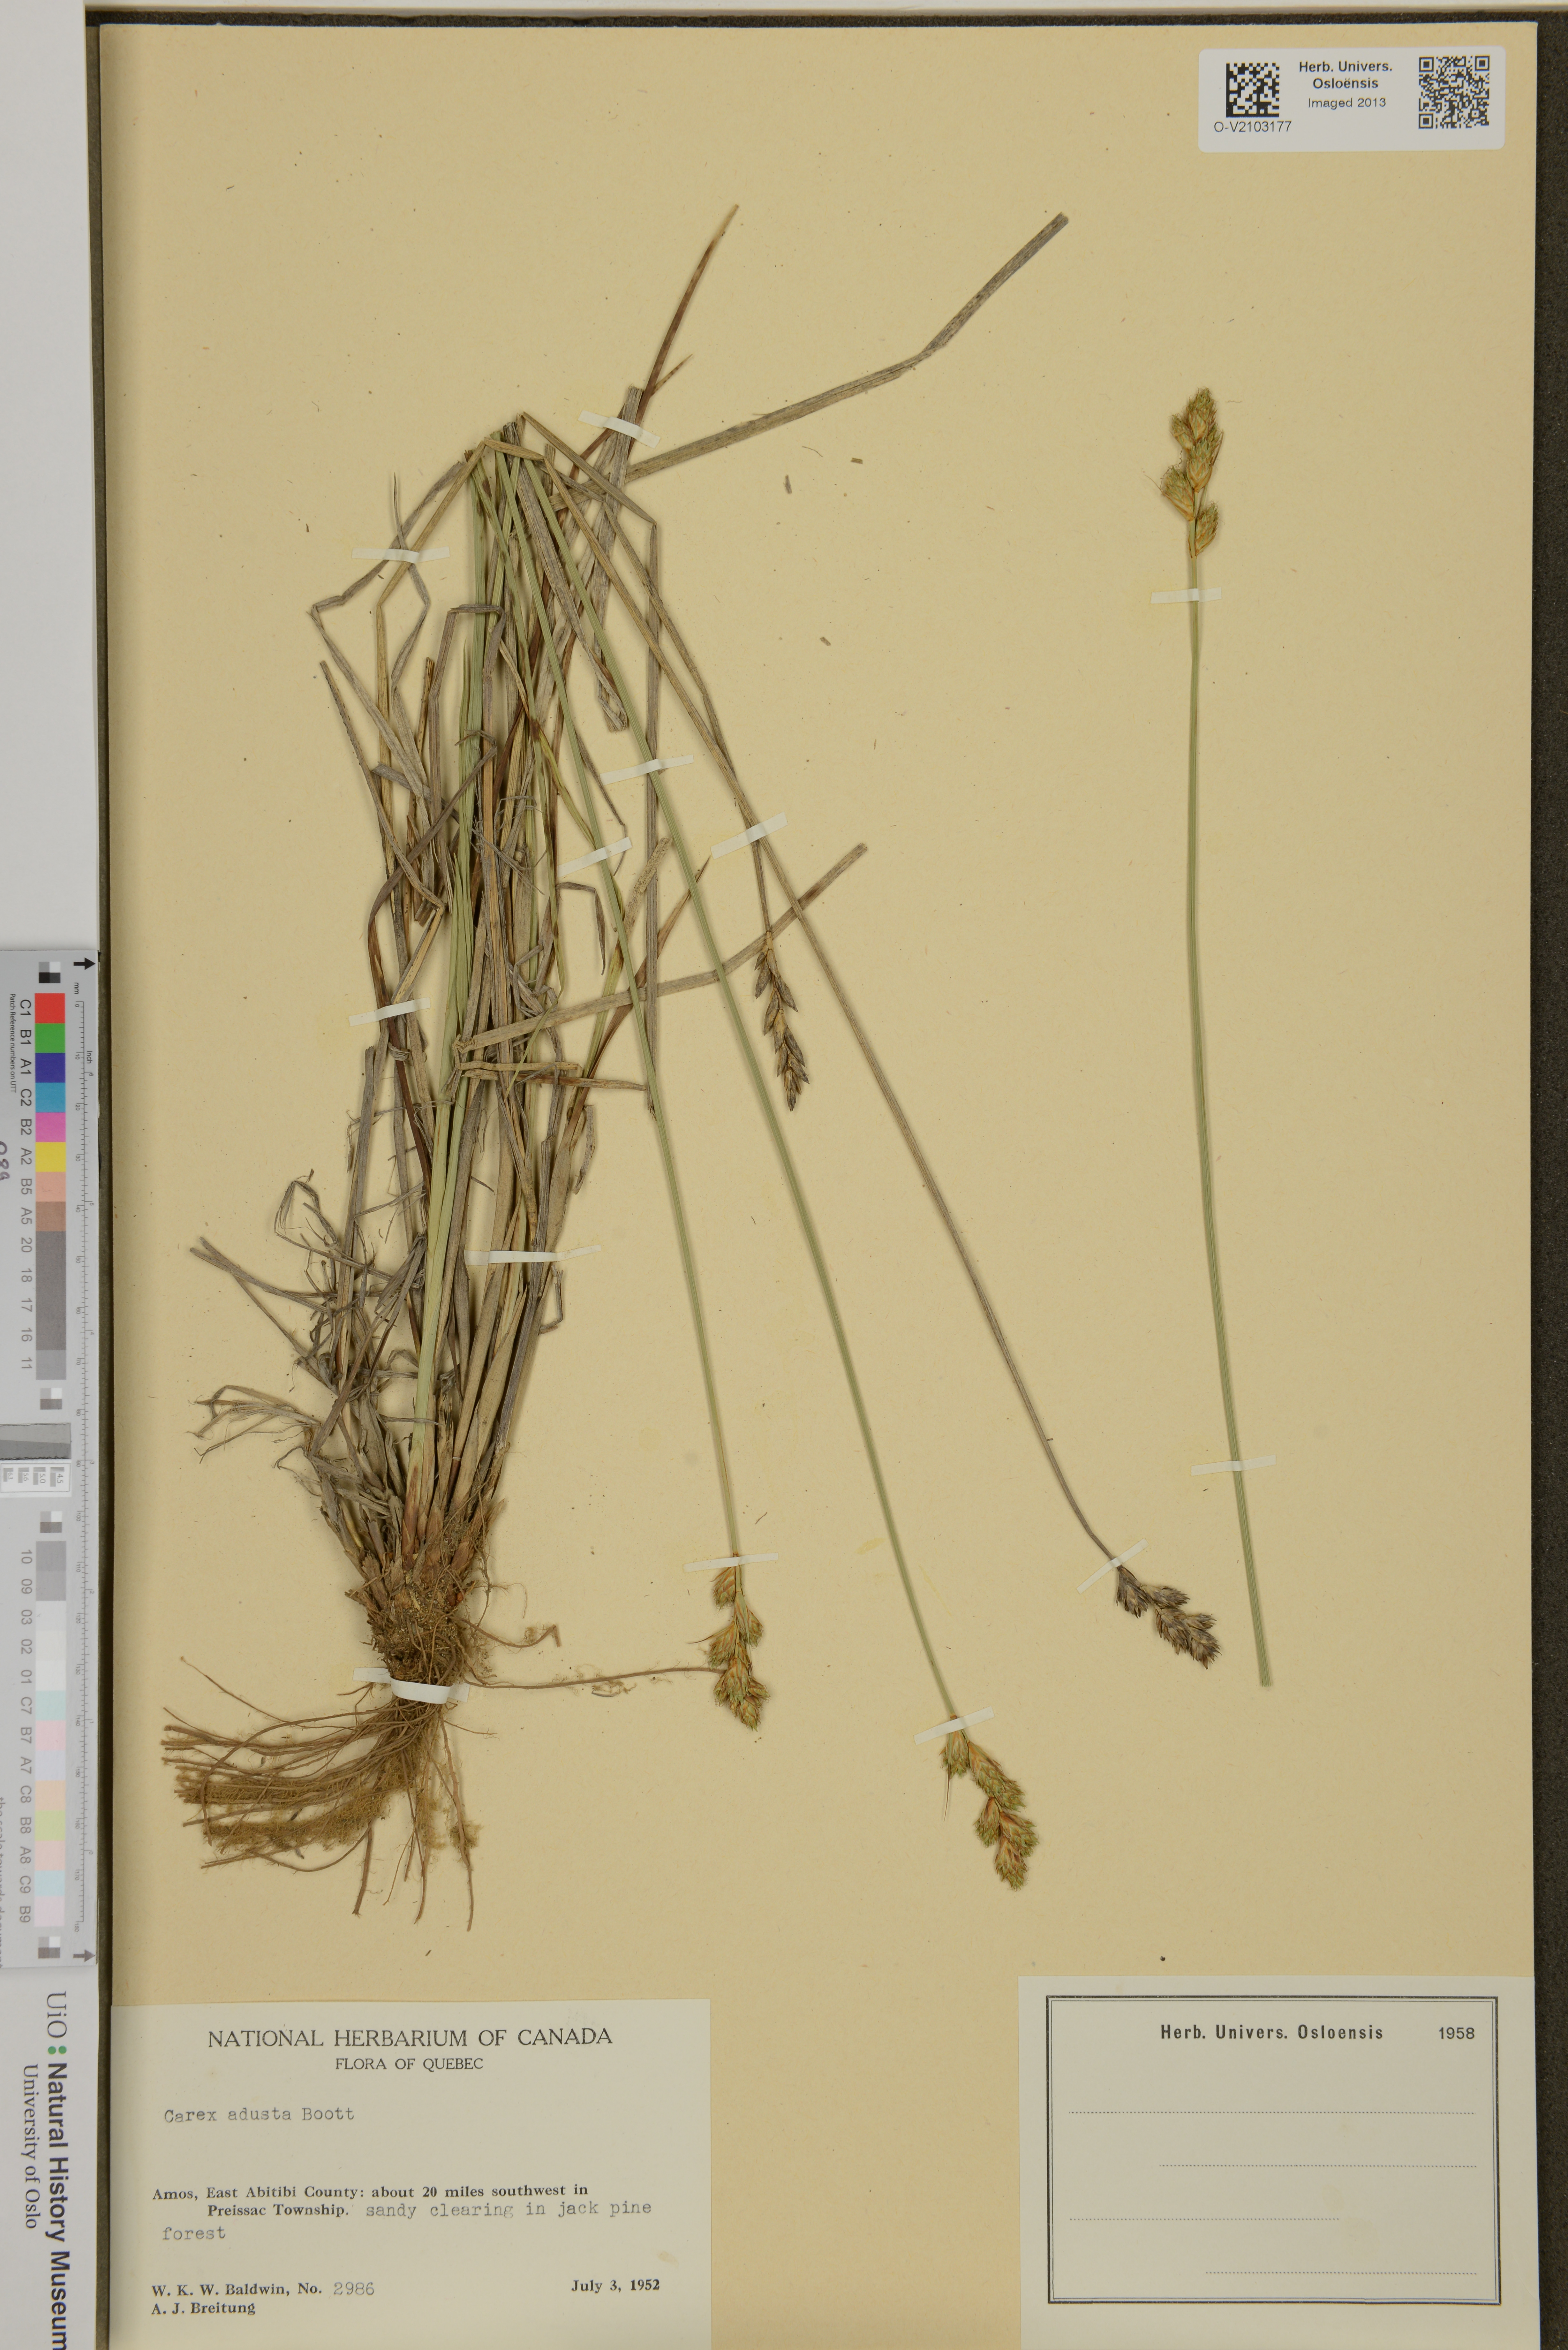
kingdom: Plantae
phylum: Tracheophyta
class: Liliopsida
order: Poales
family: Cyperaceae
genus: Carex
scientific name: Carex adusta
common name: Browned sedge
